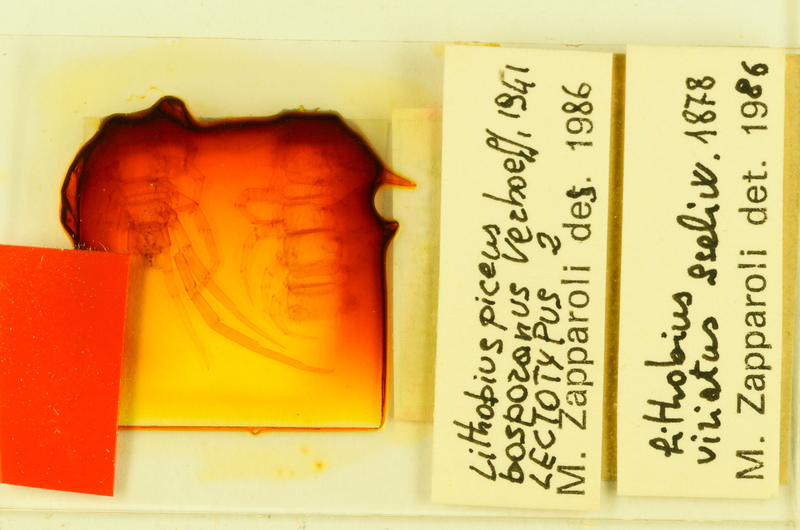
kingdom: Animalia
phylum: Arthropoda
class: Chilopoda
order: Lithobiomorpha
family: Lithobiidae
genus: Lithobius
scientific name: Lithobius viriatus
